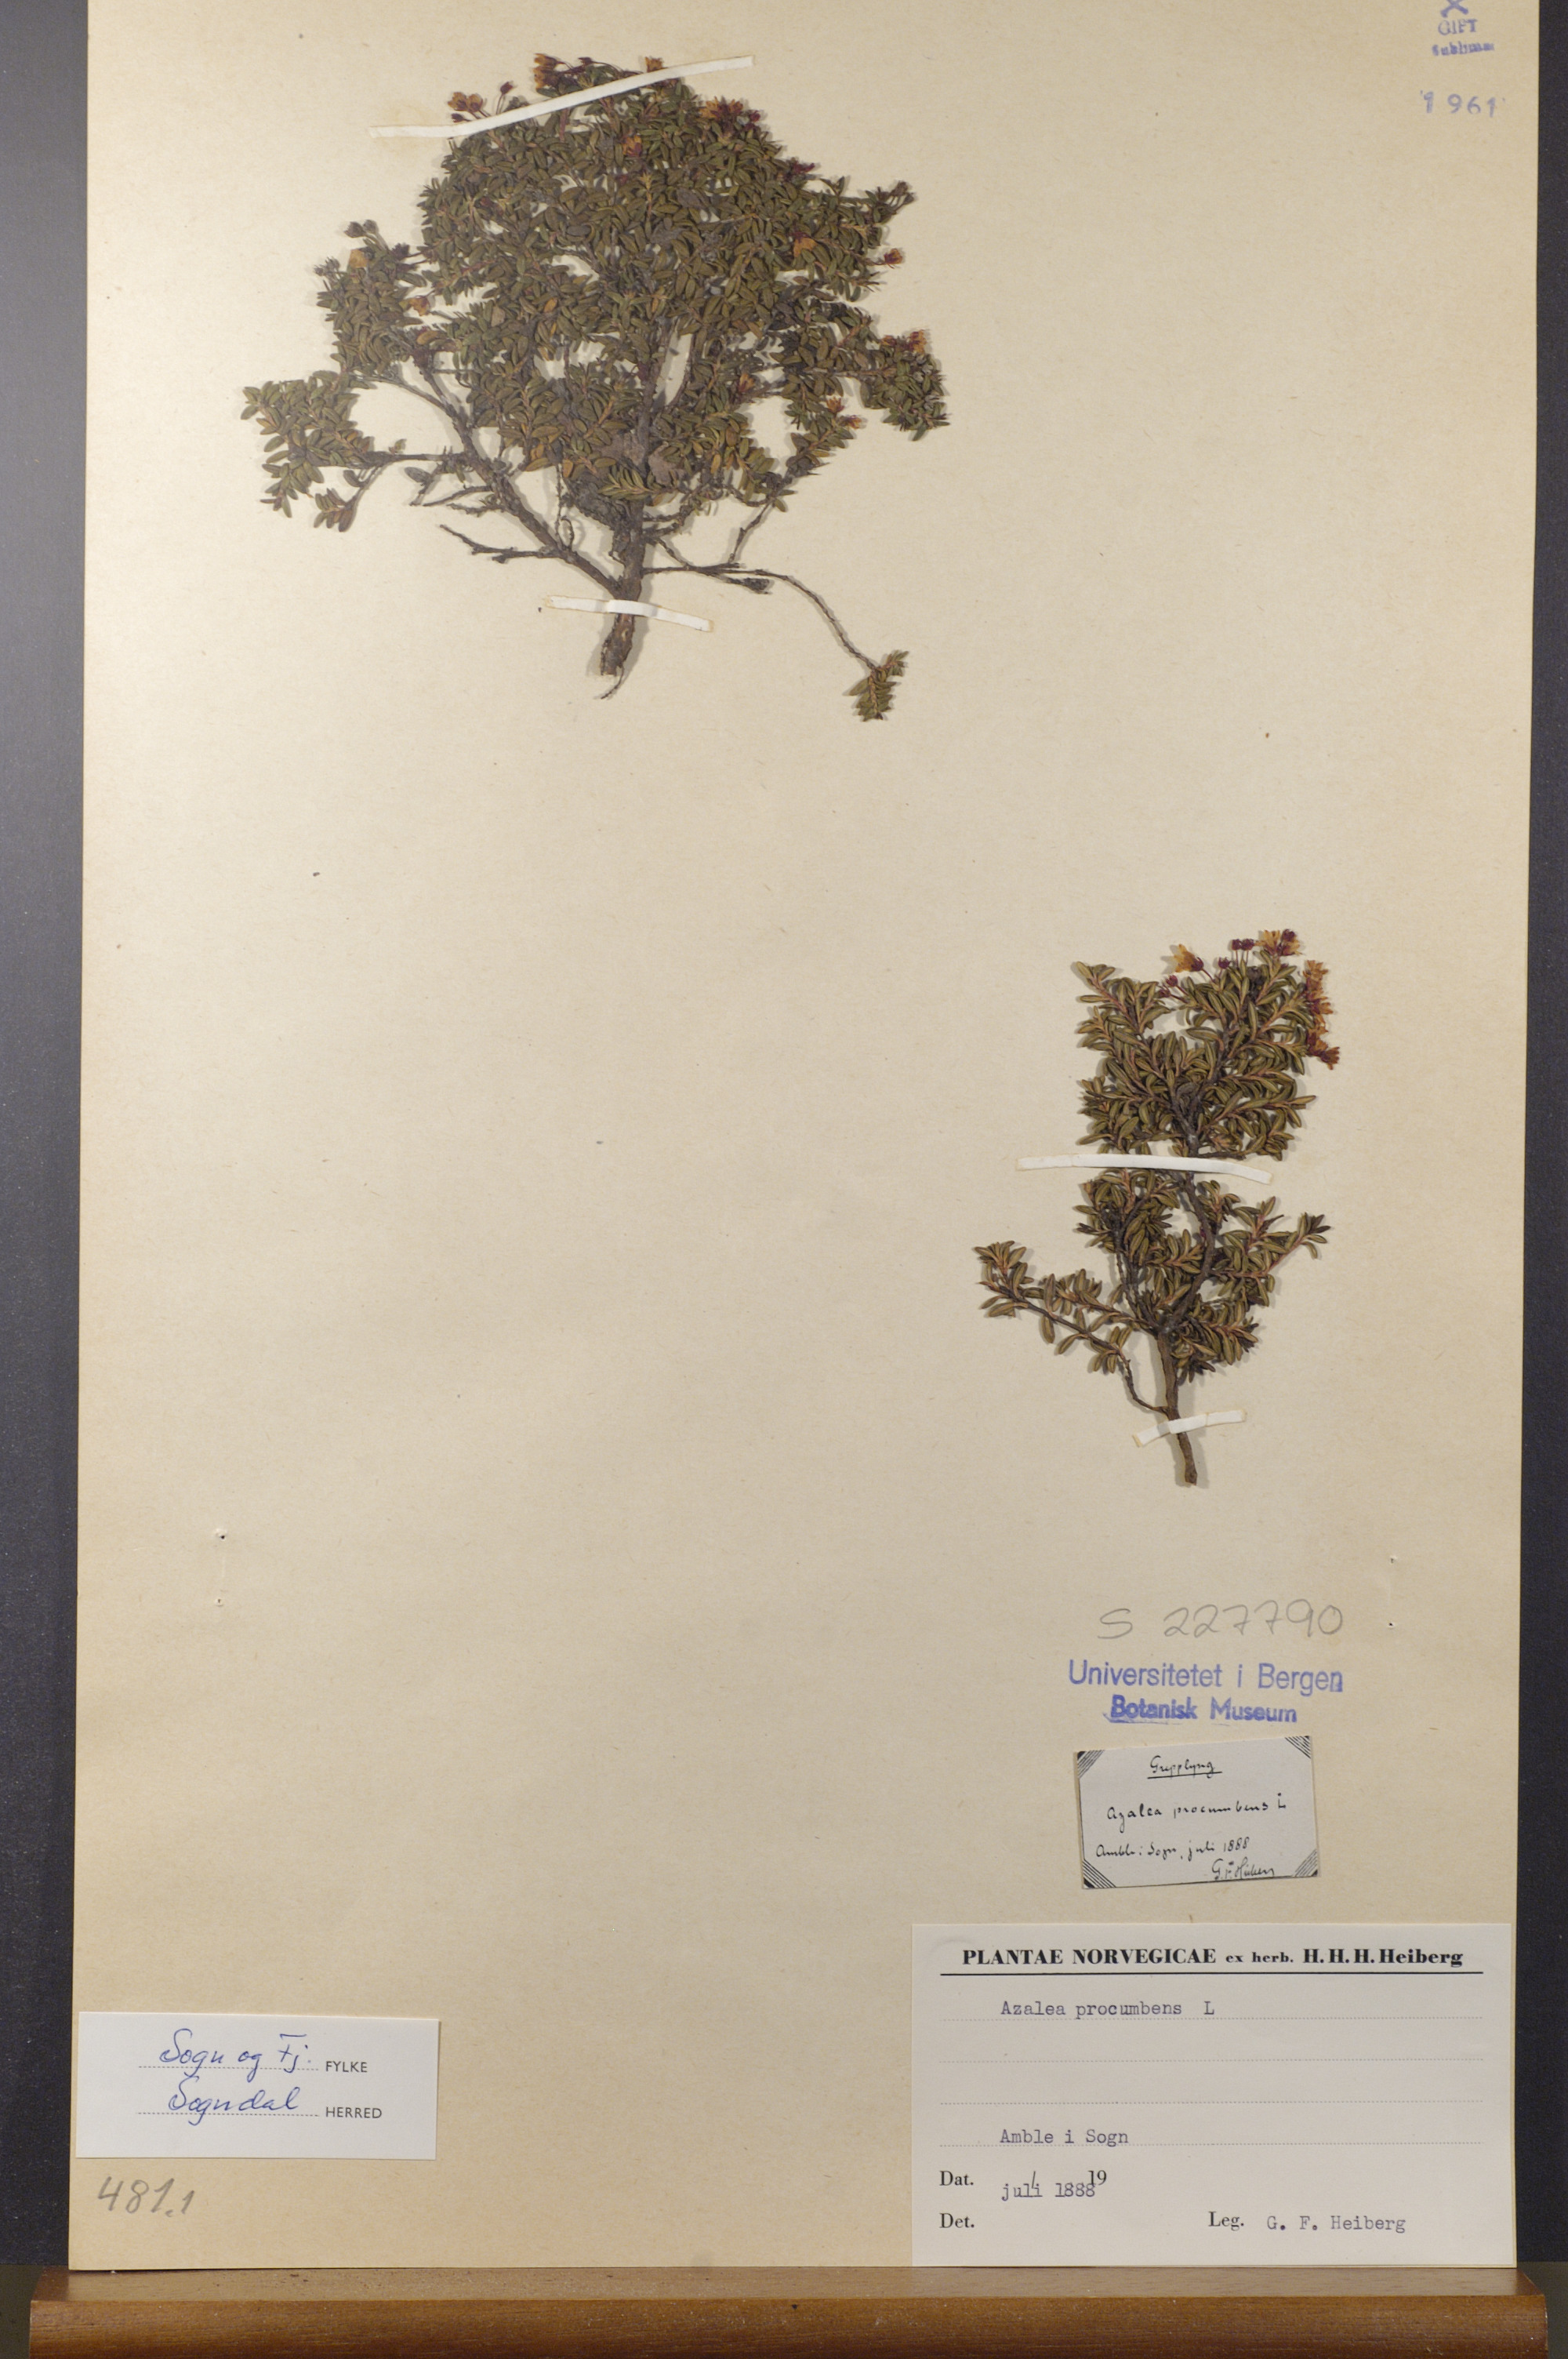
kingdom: Plantae
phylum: Tracheophyta
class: Magnoliopsida
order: Ericales
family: Ericaceae
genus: Kalmia
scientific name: Kalmia procumbens
